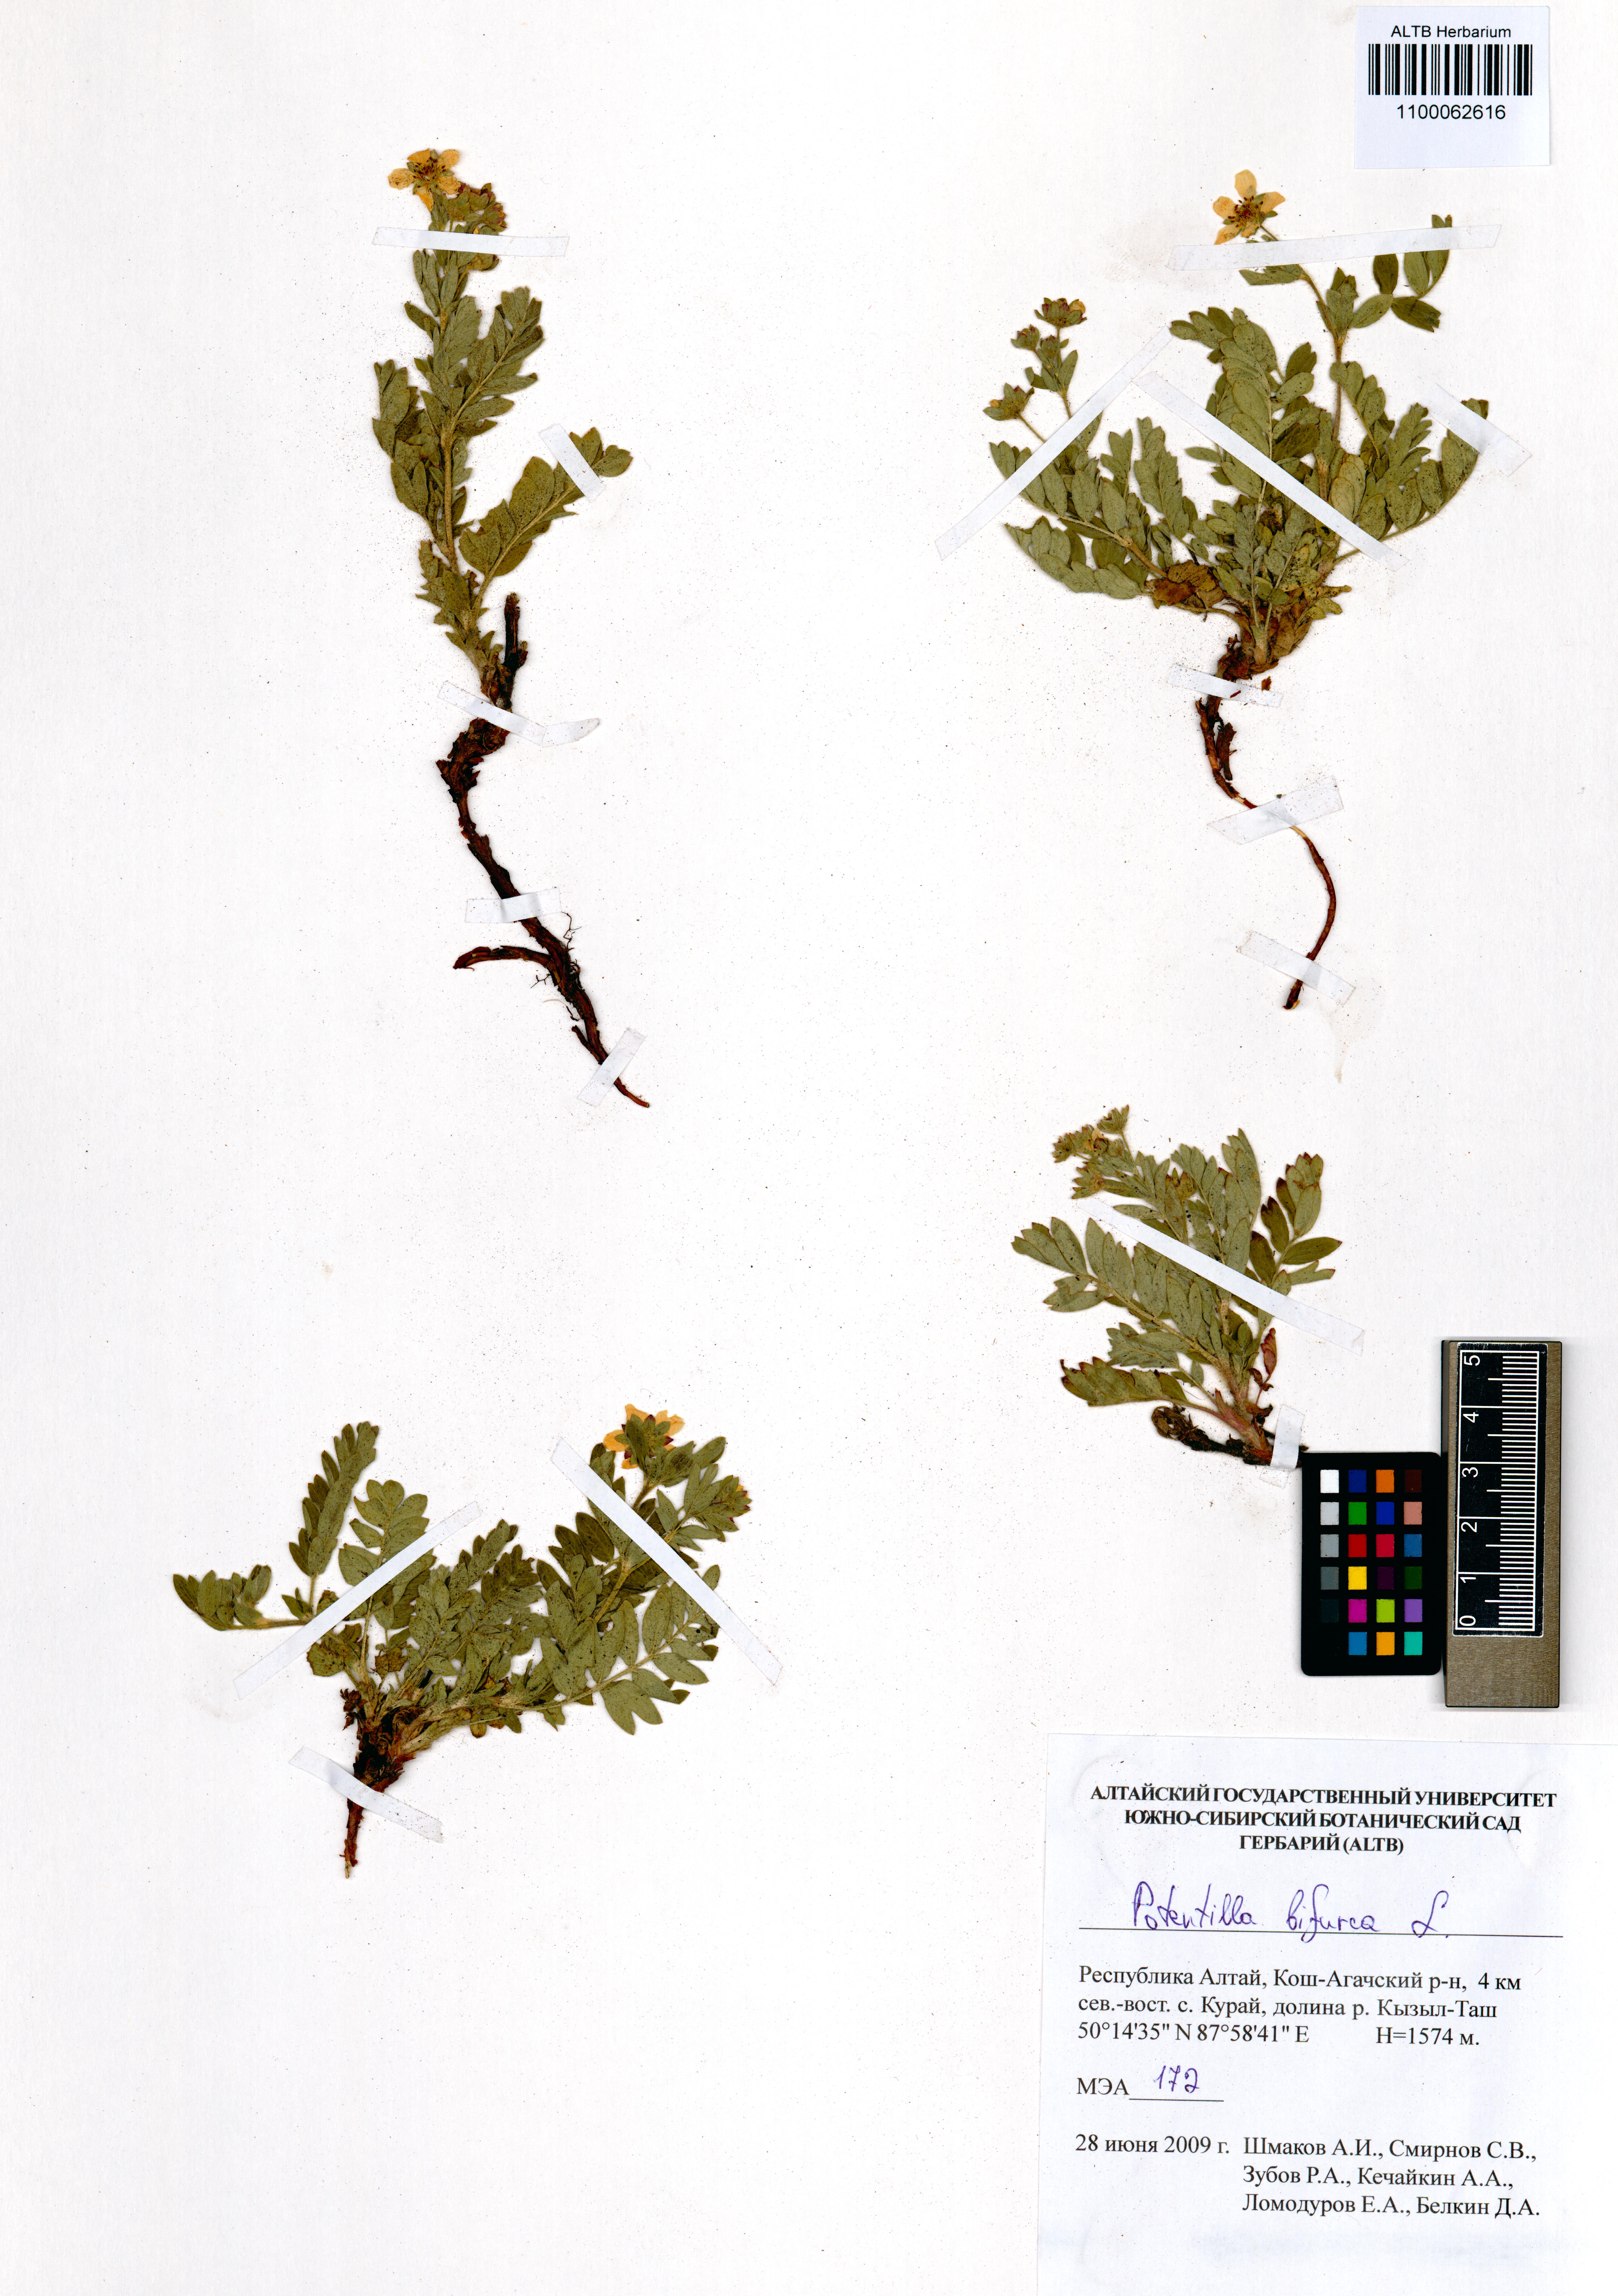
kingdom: Plantae
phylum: Tracheophyta
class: Magnoliopsida
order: Rosales
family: Rosaceae
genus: Sibbaldianthe
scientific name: Sibbaldianthe bifurca
